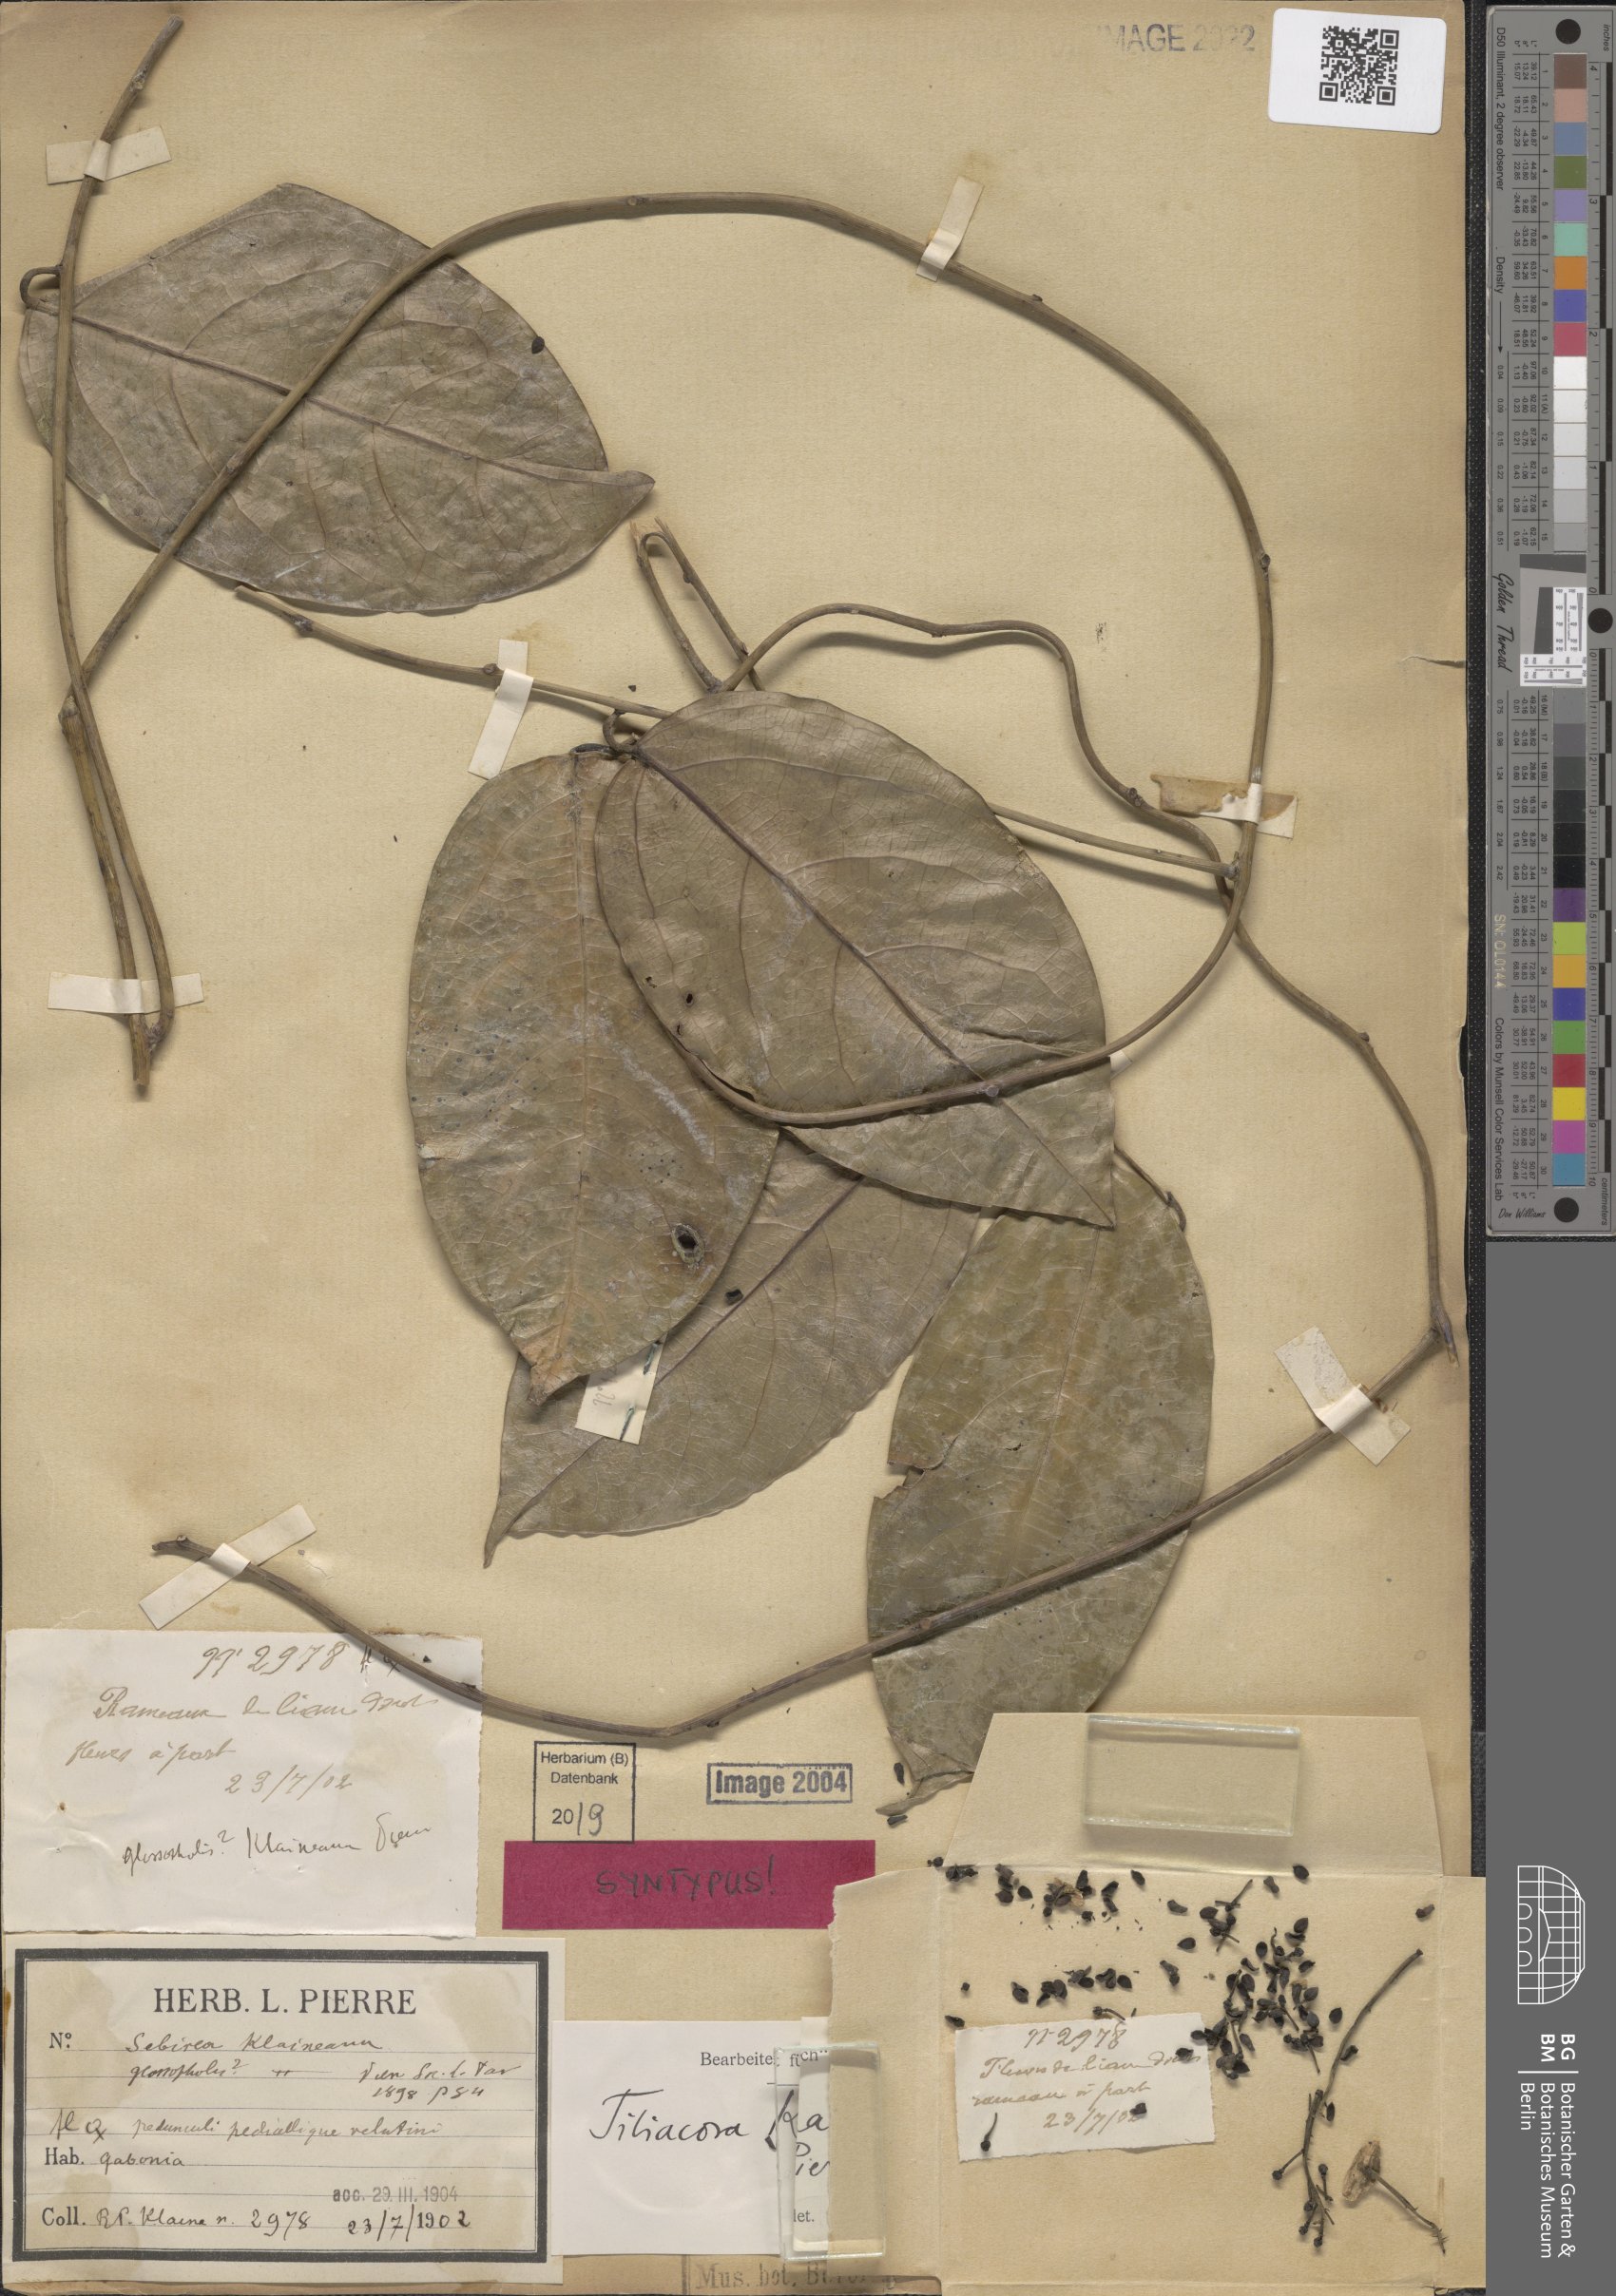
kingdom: Plantae
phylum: Tracheophyta
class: Magnoliopsida
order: Ranunculales
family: Menispermaceae
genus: Tiliacora
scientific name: Tiliacora klaineana
